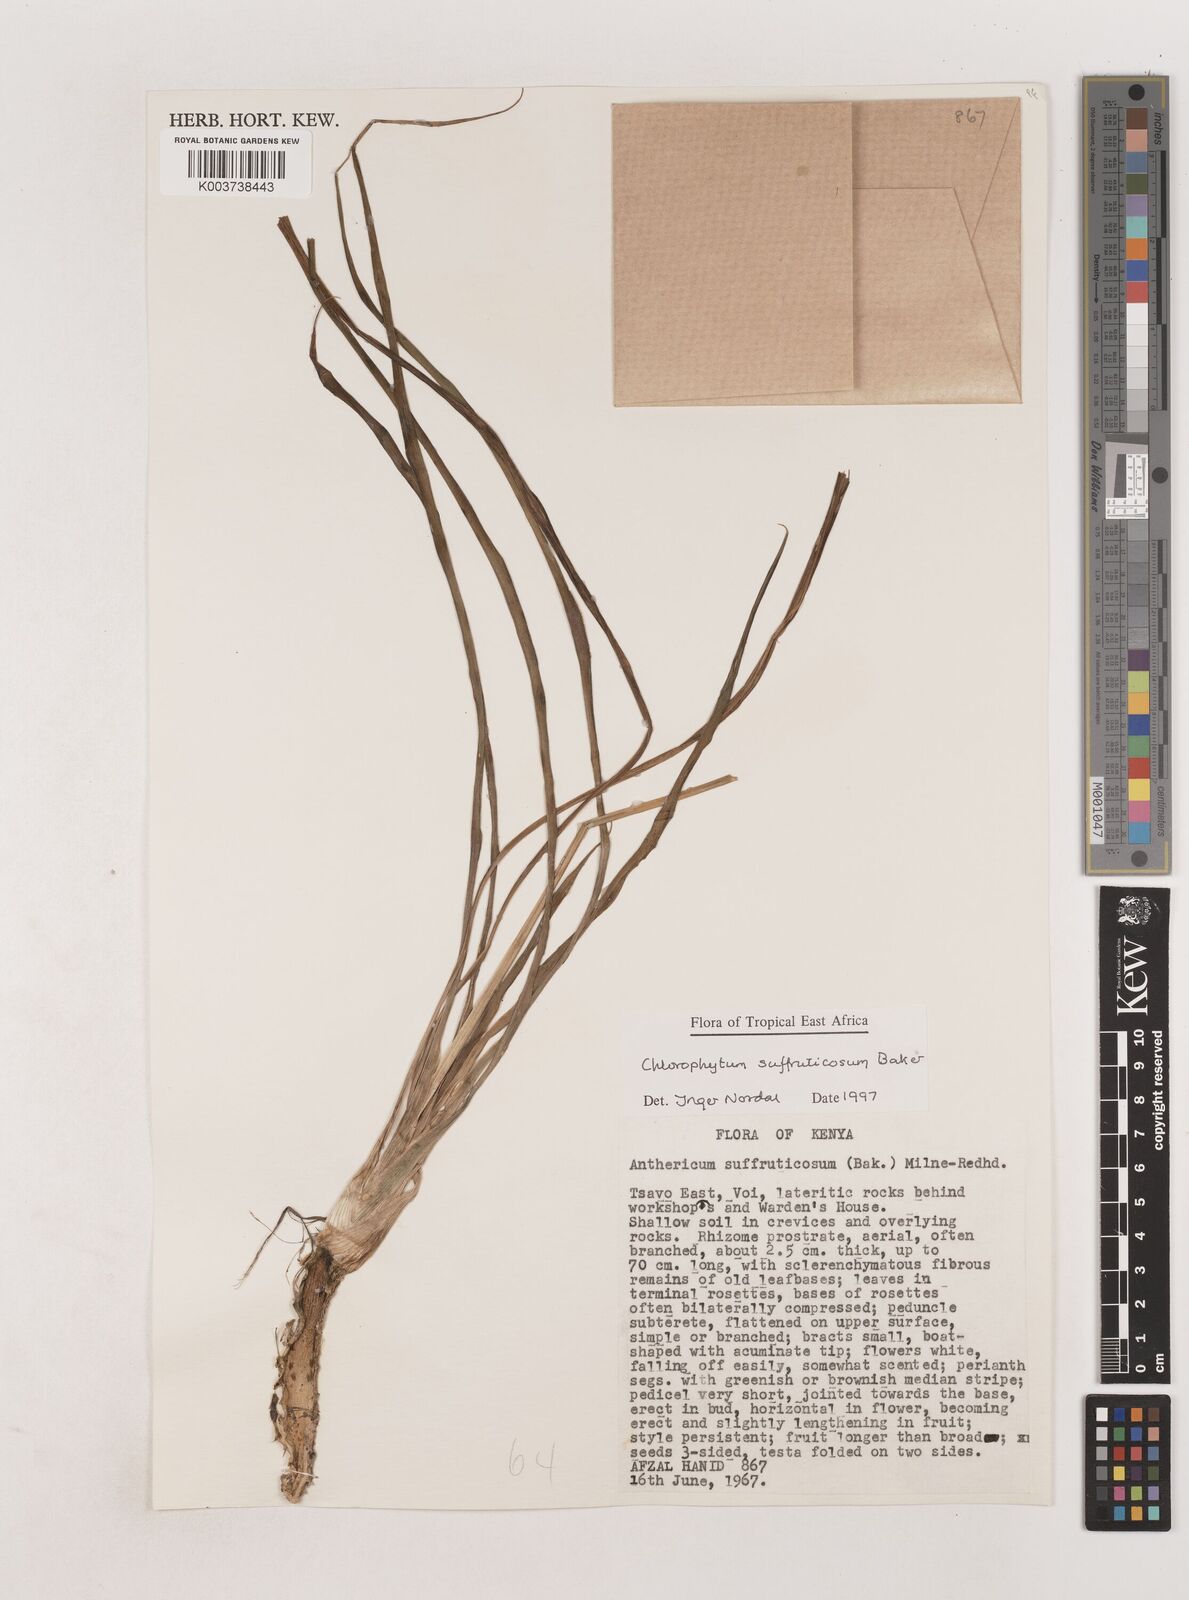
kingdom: Plantae
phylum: Tracheophyta
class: Liliopsida
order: Asparagales
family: Asparagaceae
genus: Chlorophytum
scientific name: Chlorophytum suffruticosum
